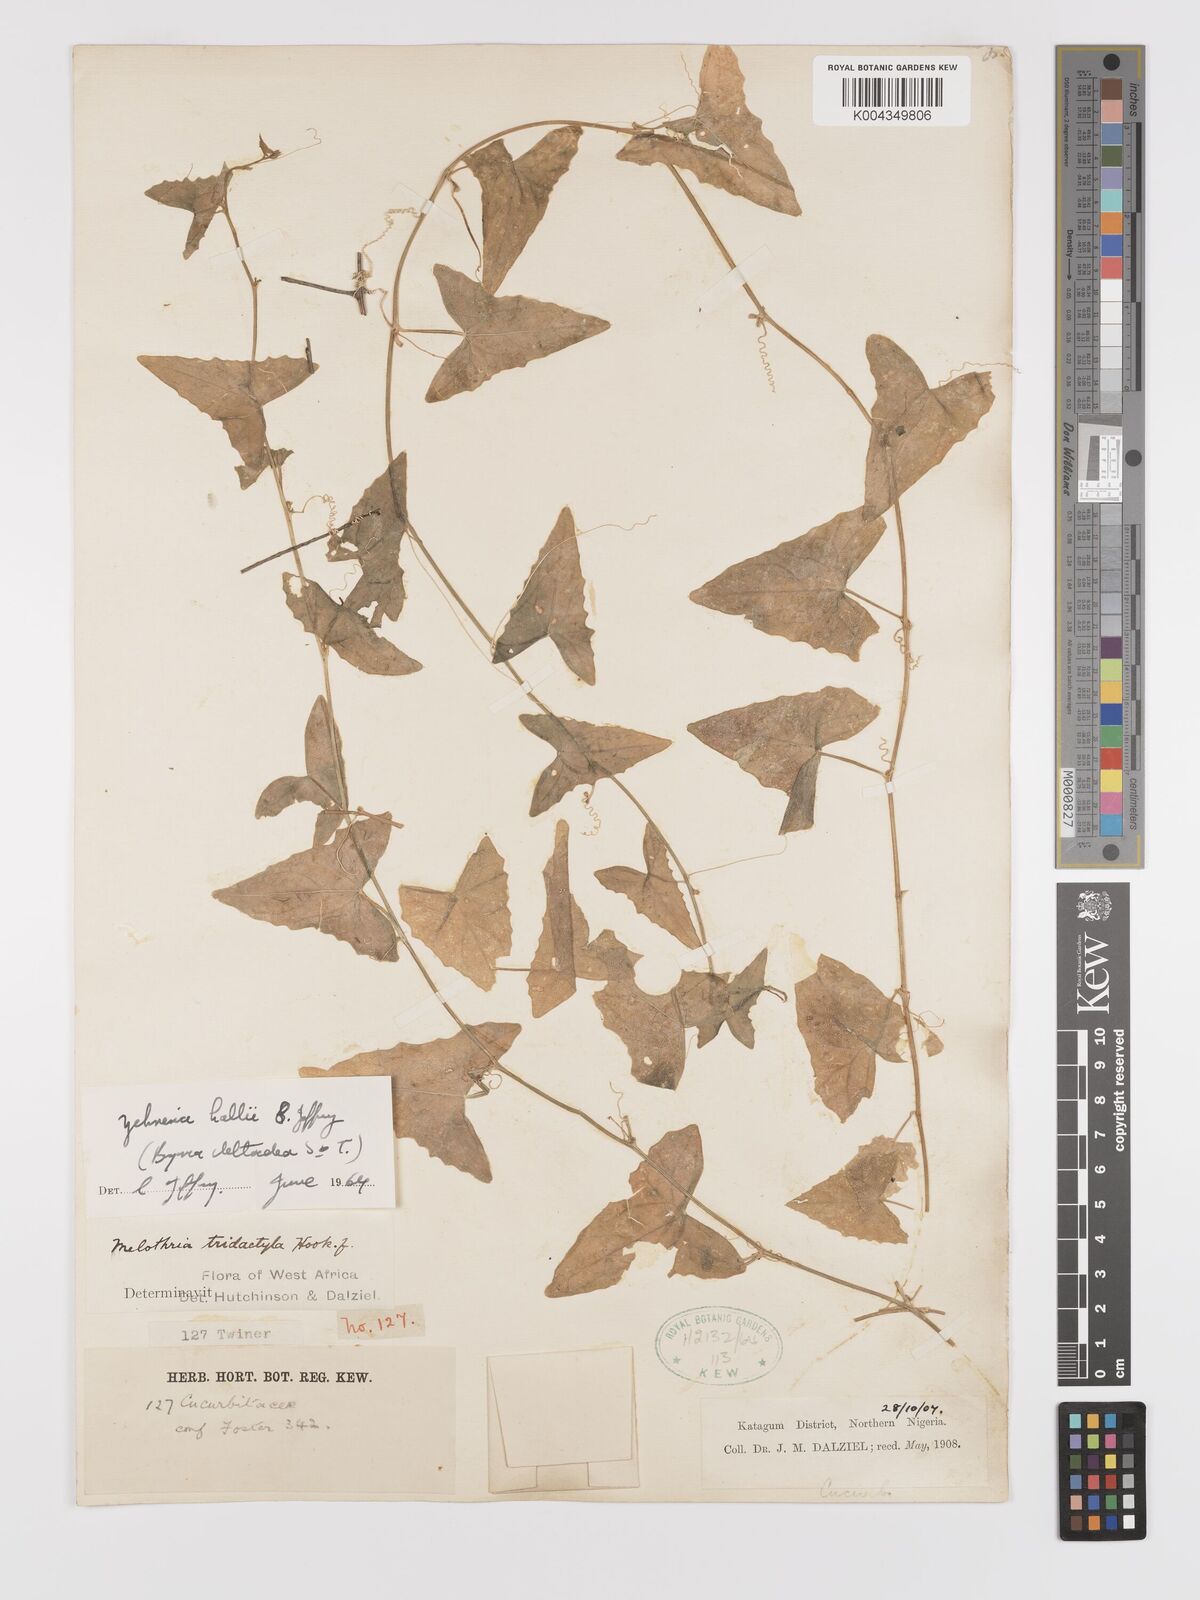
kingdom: Plantae
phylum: Tracheophyta
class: Magnoliopsida
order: Cucurbitales
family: Cucurbitaceae
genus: Zehneria
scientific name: Zehneria hallii
